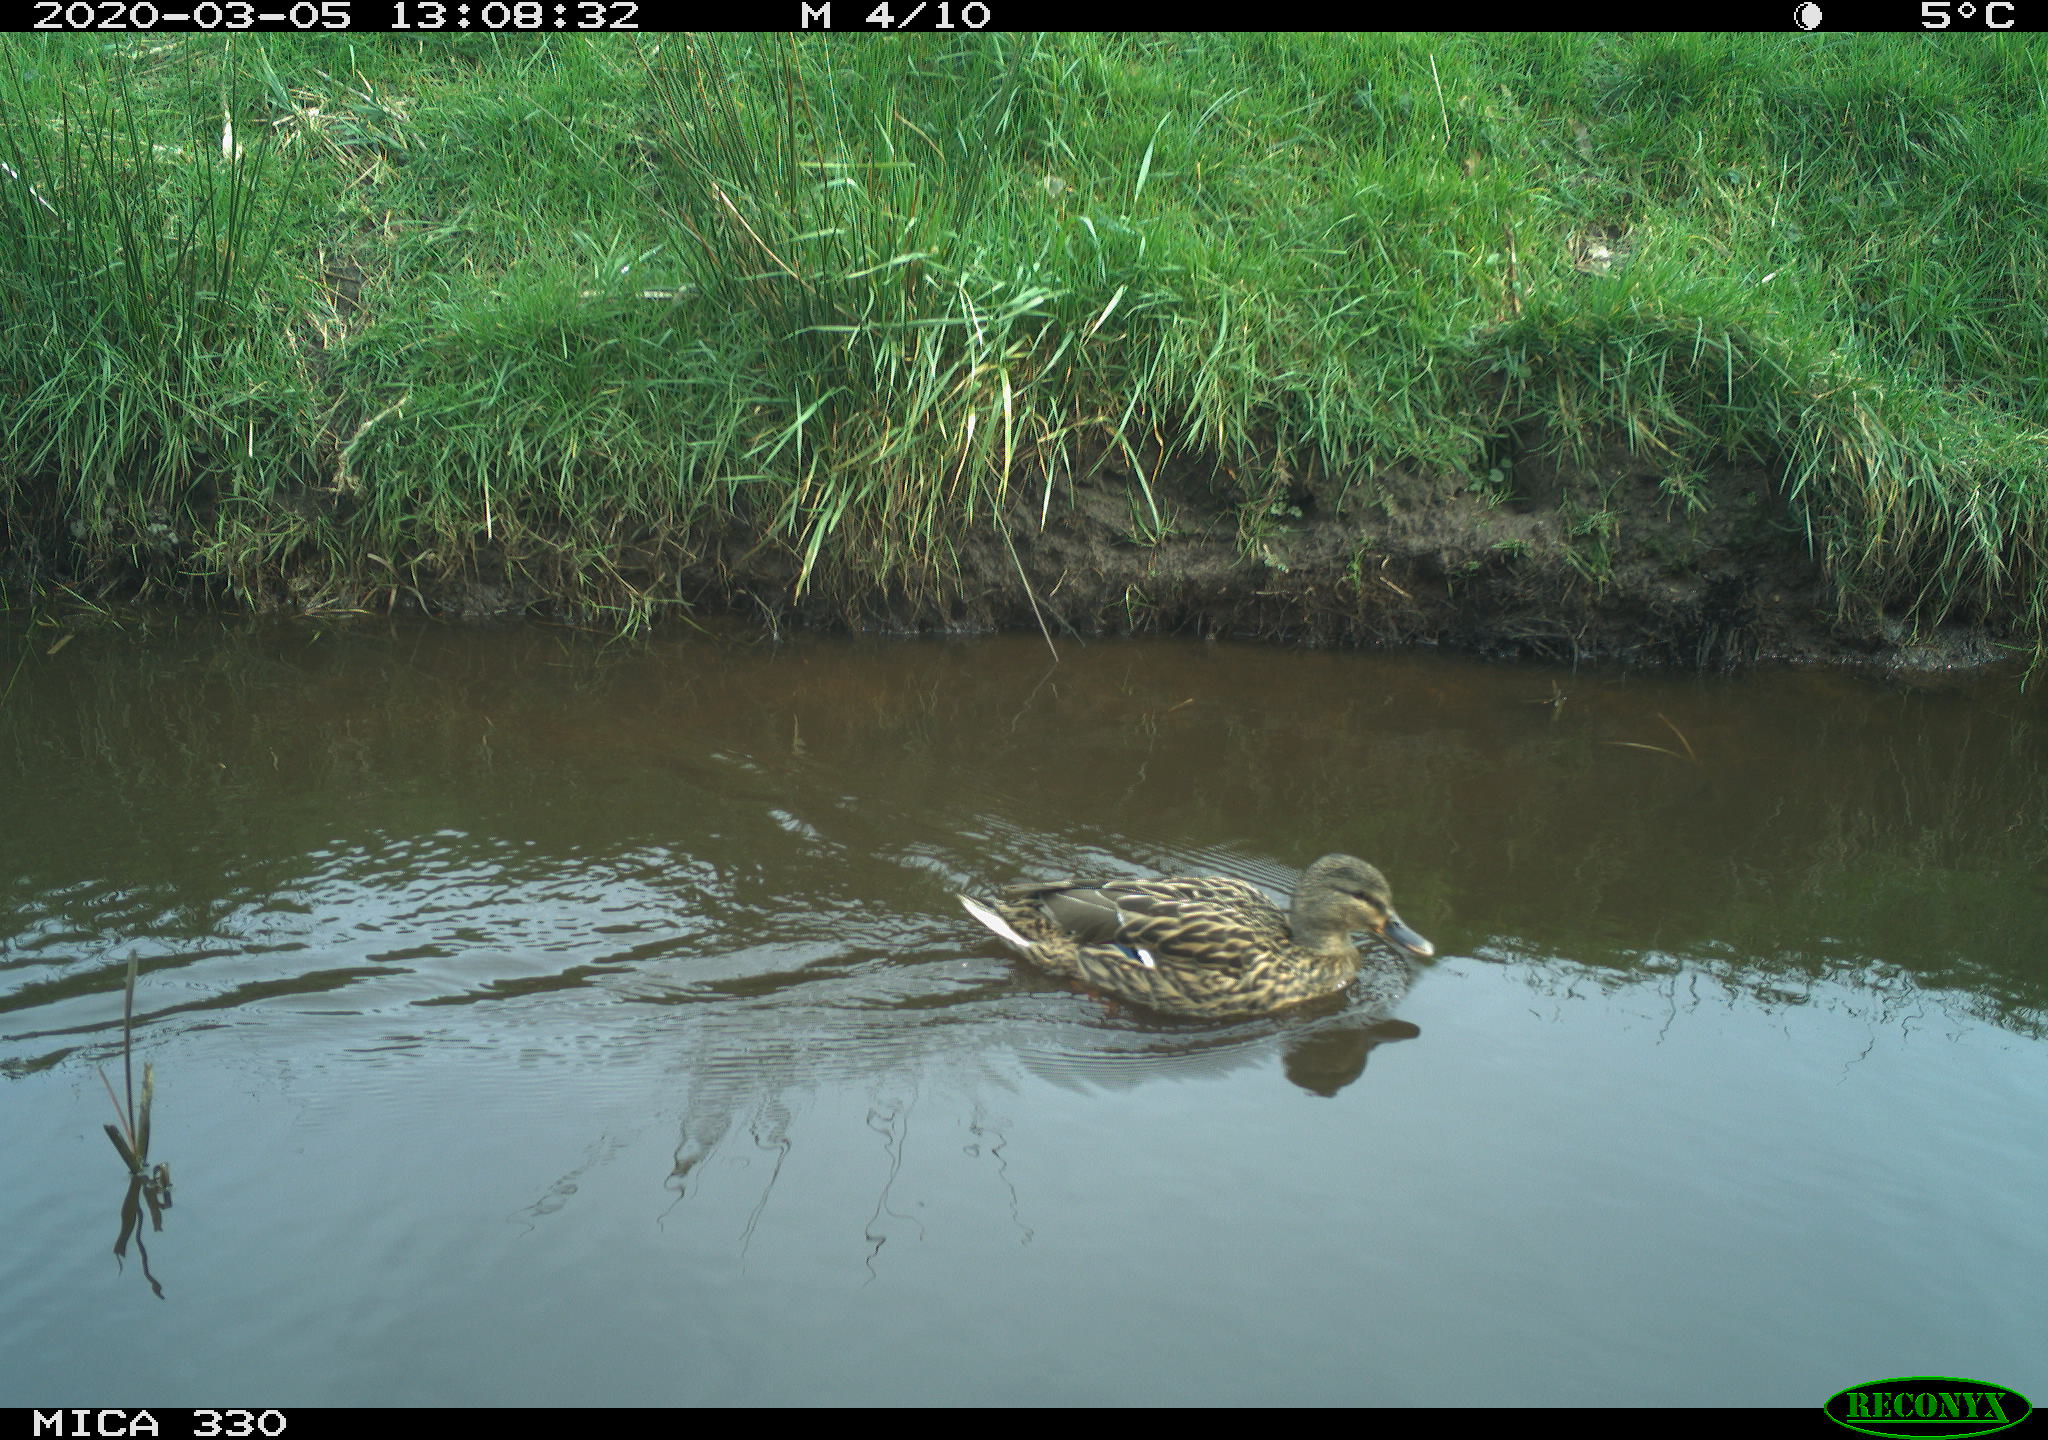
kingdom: Animalia
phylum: Chordata
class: Aves
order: Anseriformes
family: Anatidae
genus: Anas
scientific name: Anas platyrhynchos
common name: Mallard
